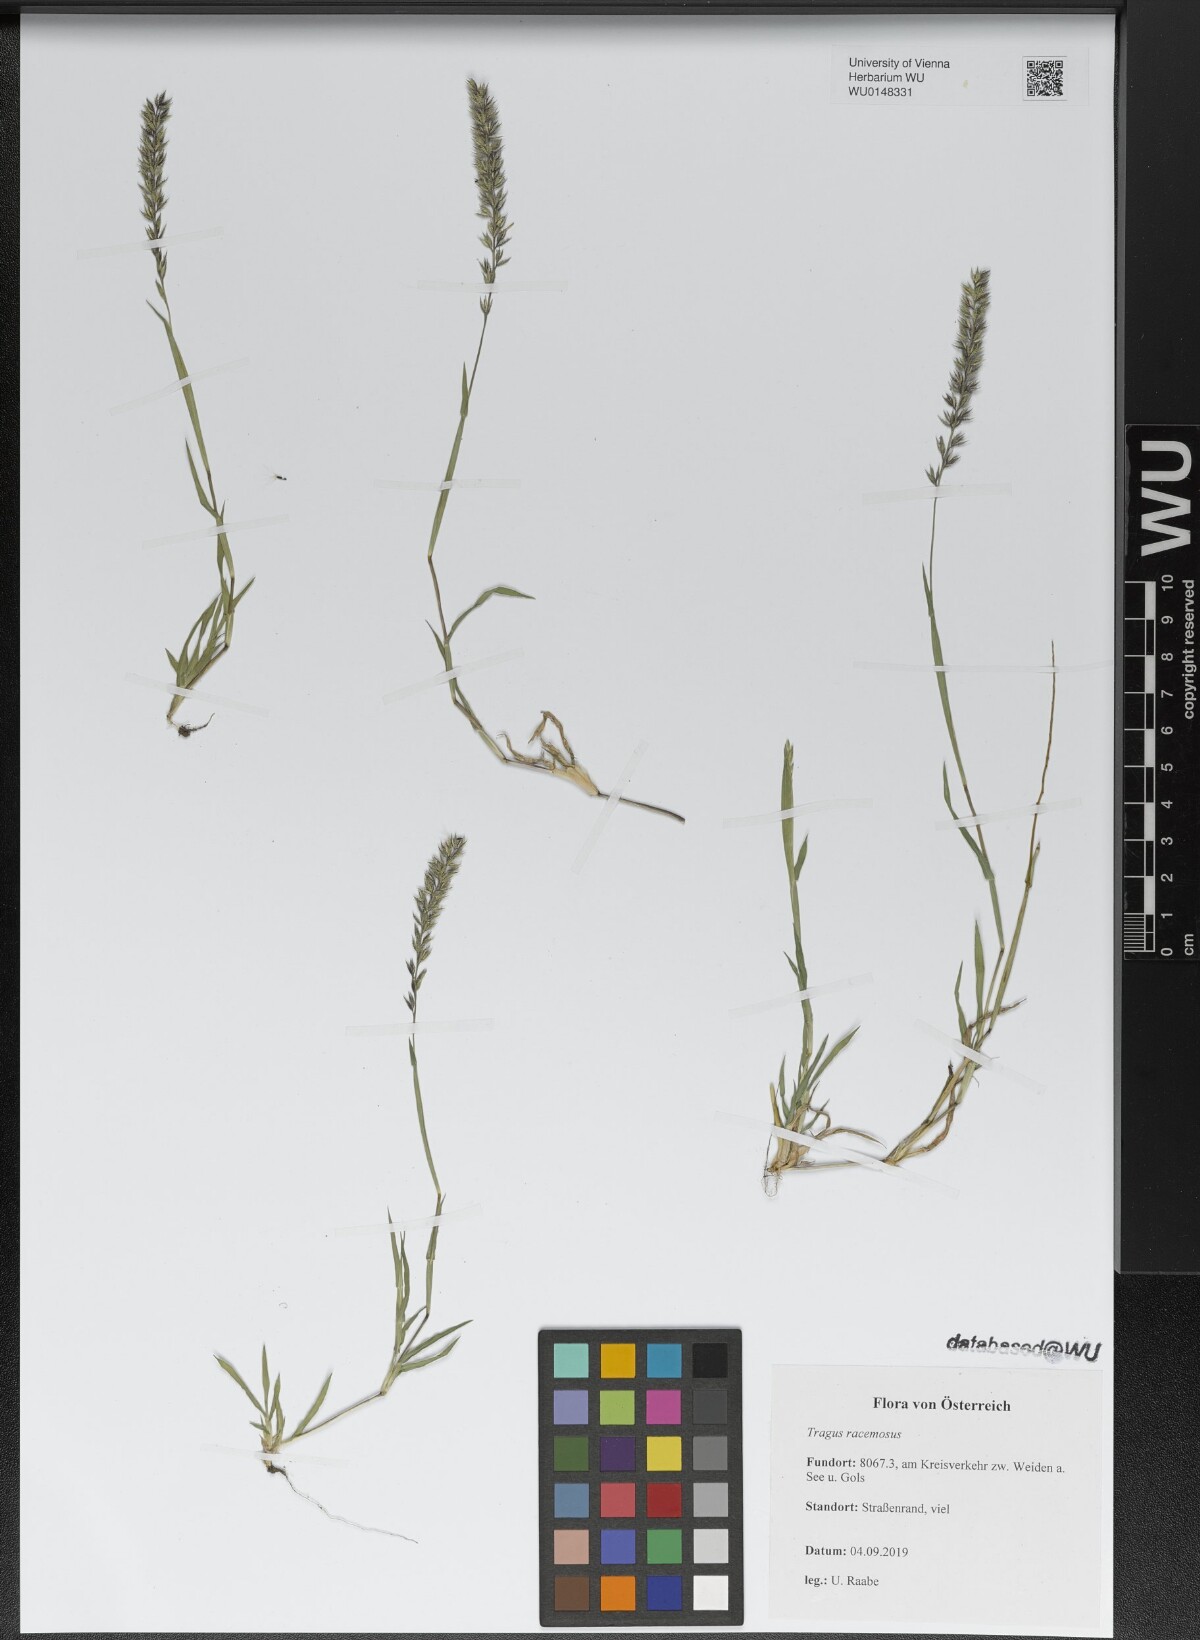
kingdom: Plantae
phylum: Tracheophyta
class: Liliopsida
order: Poales
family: Poaceae
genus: Tragus
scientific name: Tragus racemosus
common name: European bur-grass
